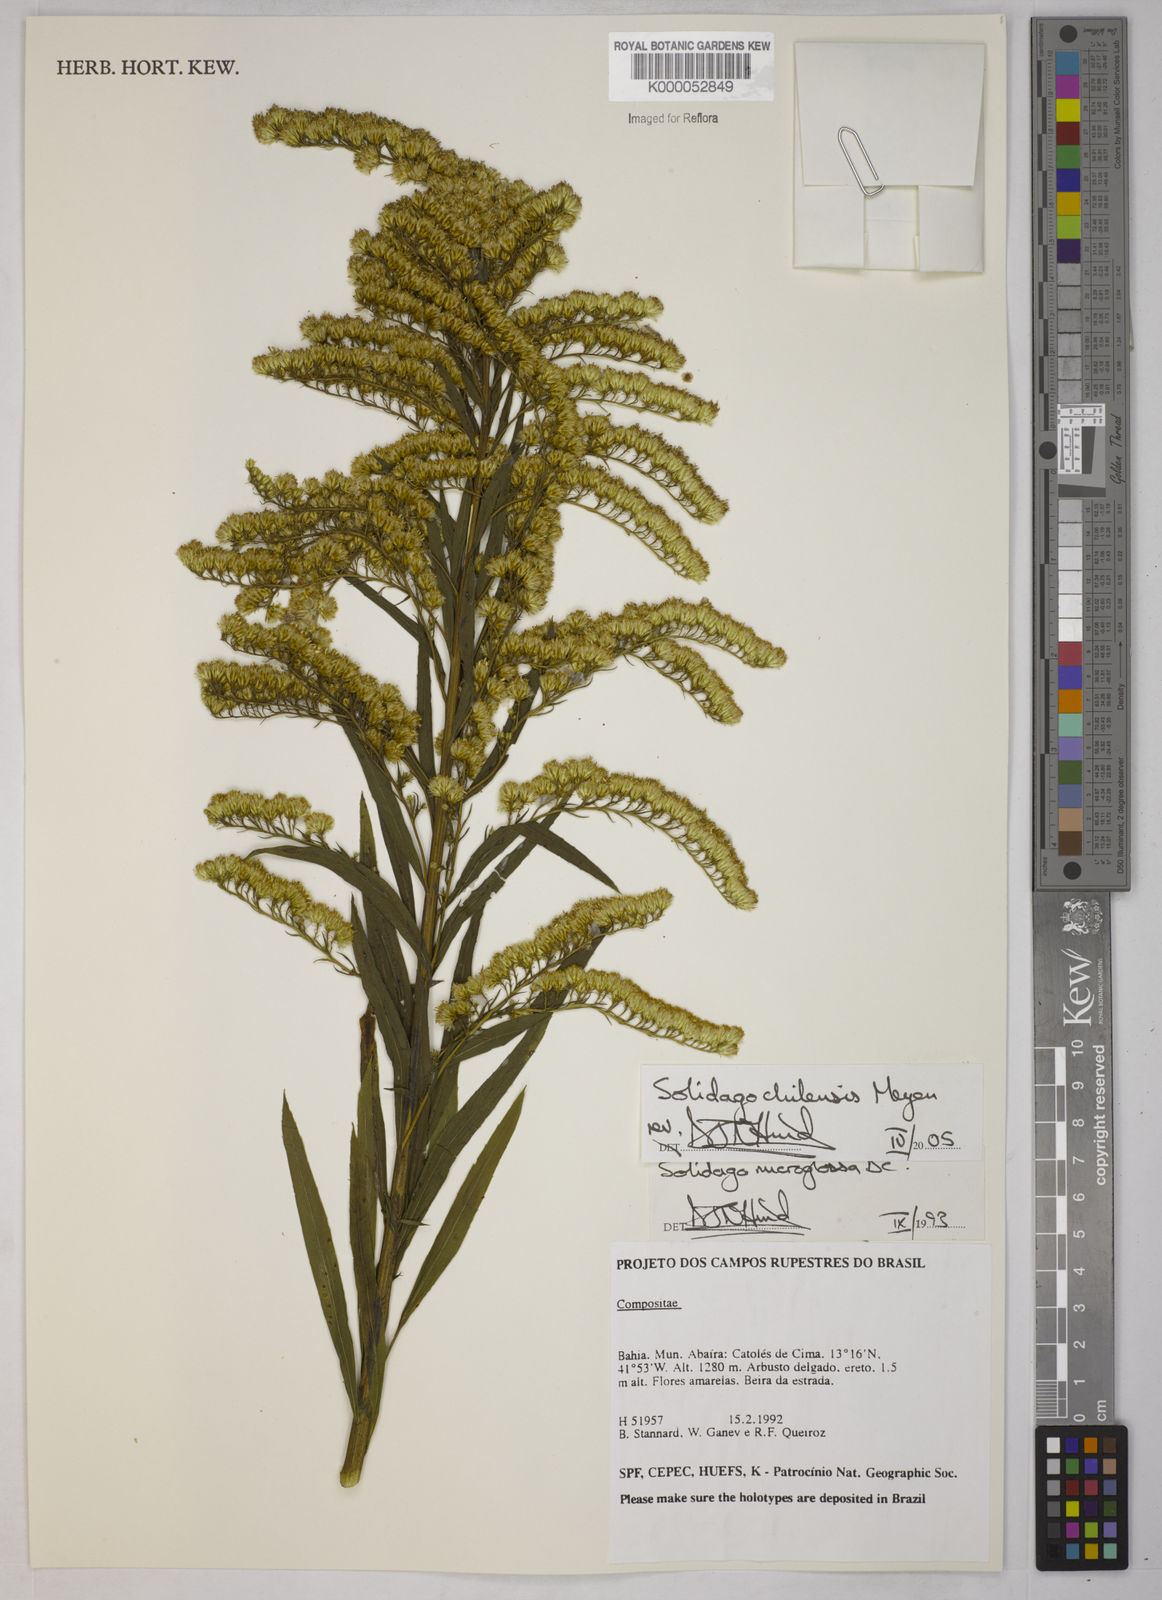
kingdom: Plantae
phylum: Tracheophyta
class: Magnoliopsida
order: Asterales
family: Asteraceae
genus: Solidago
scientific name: Solidago chilensis
